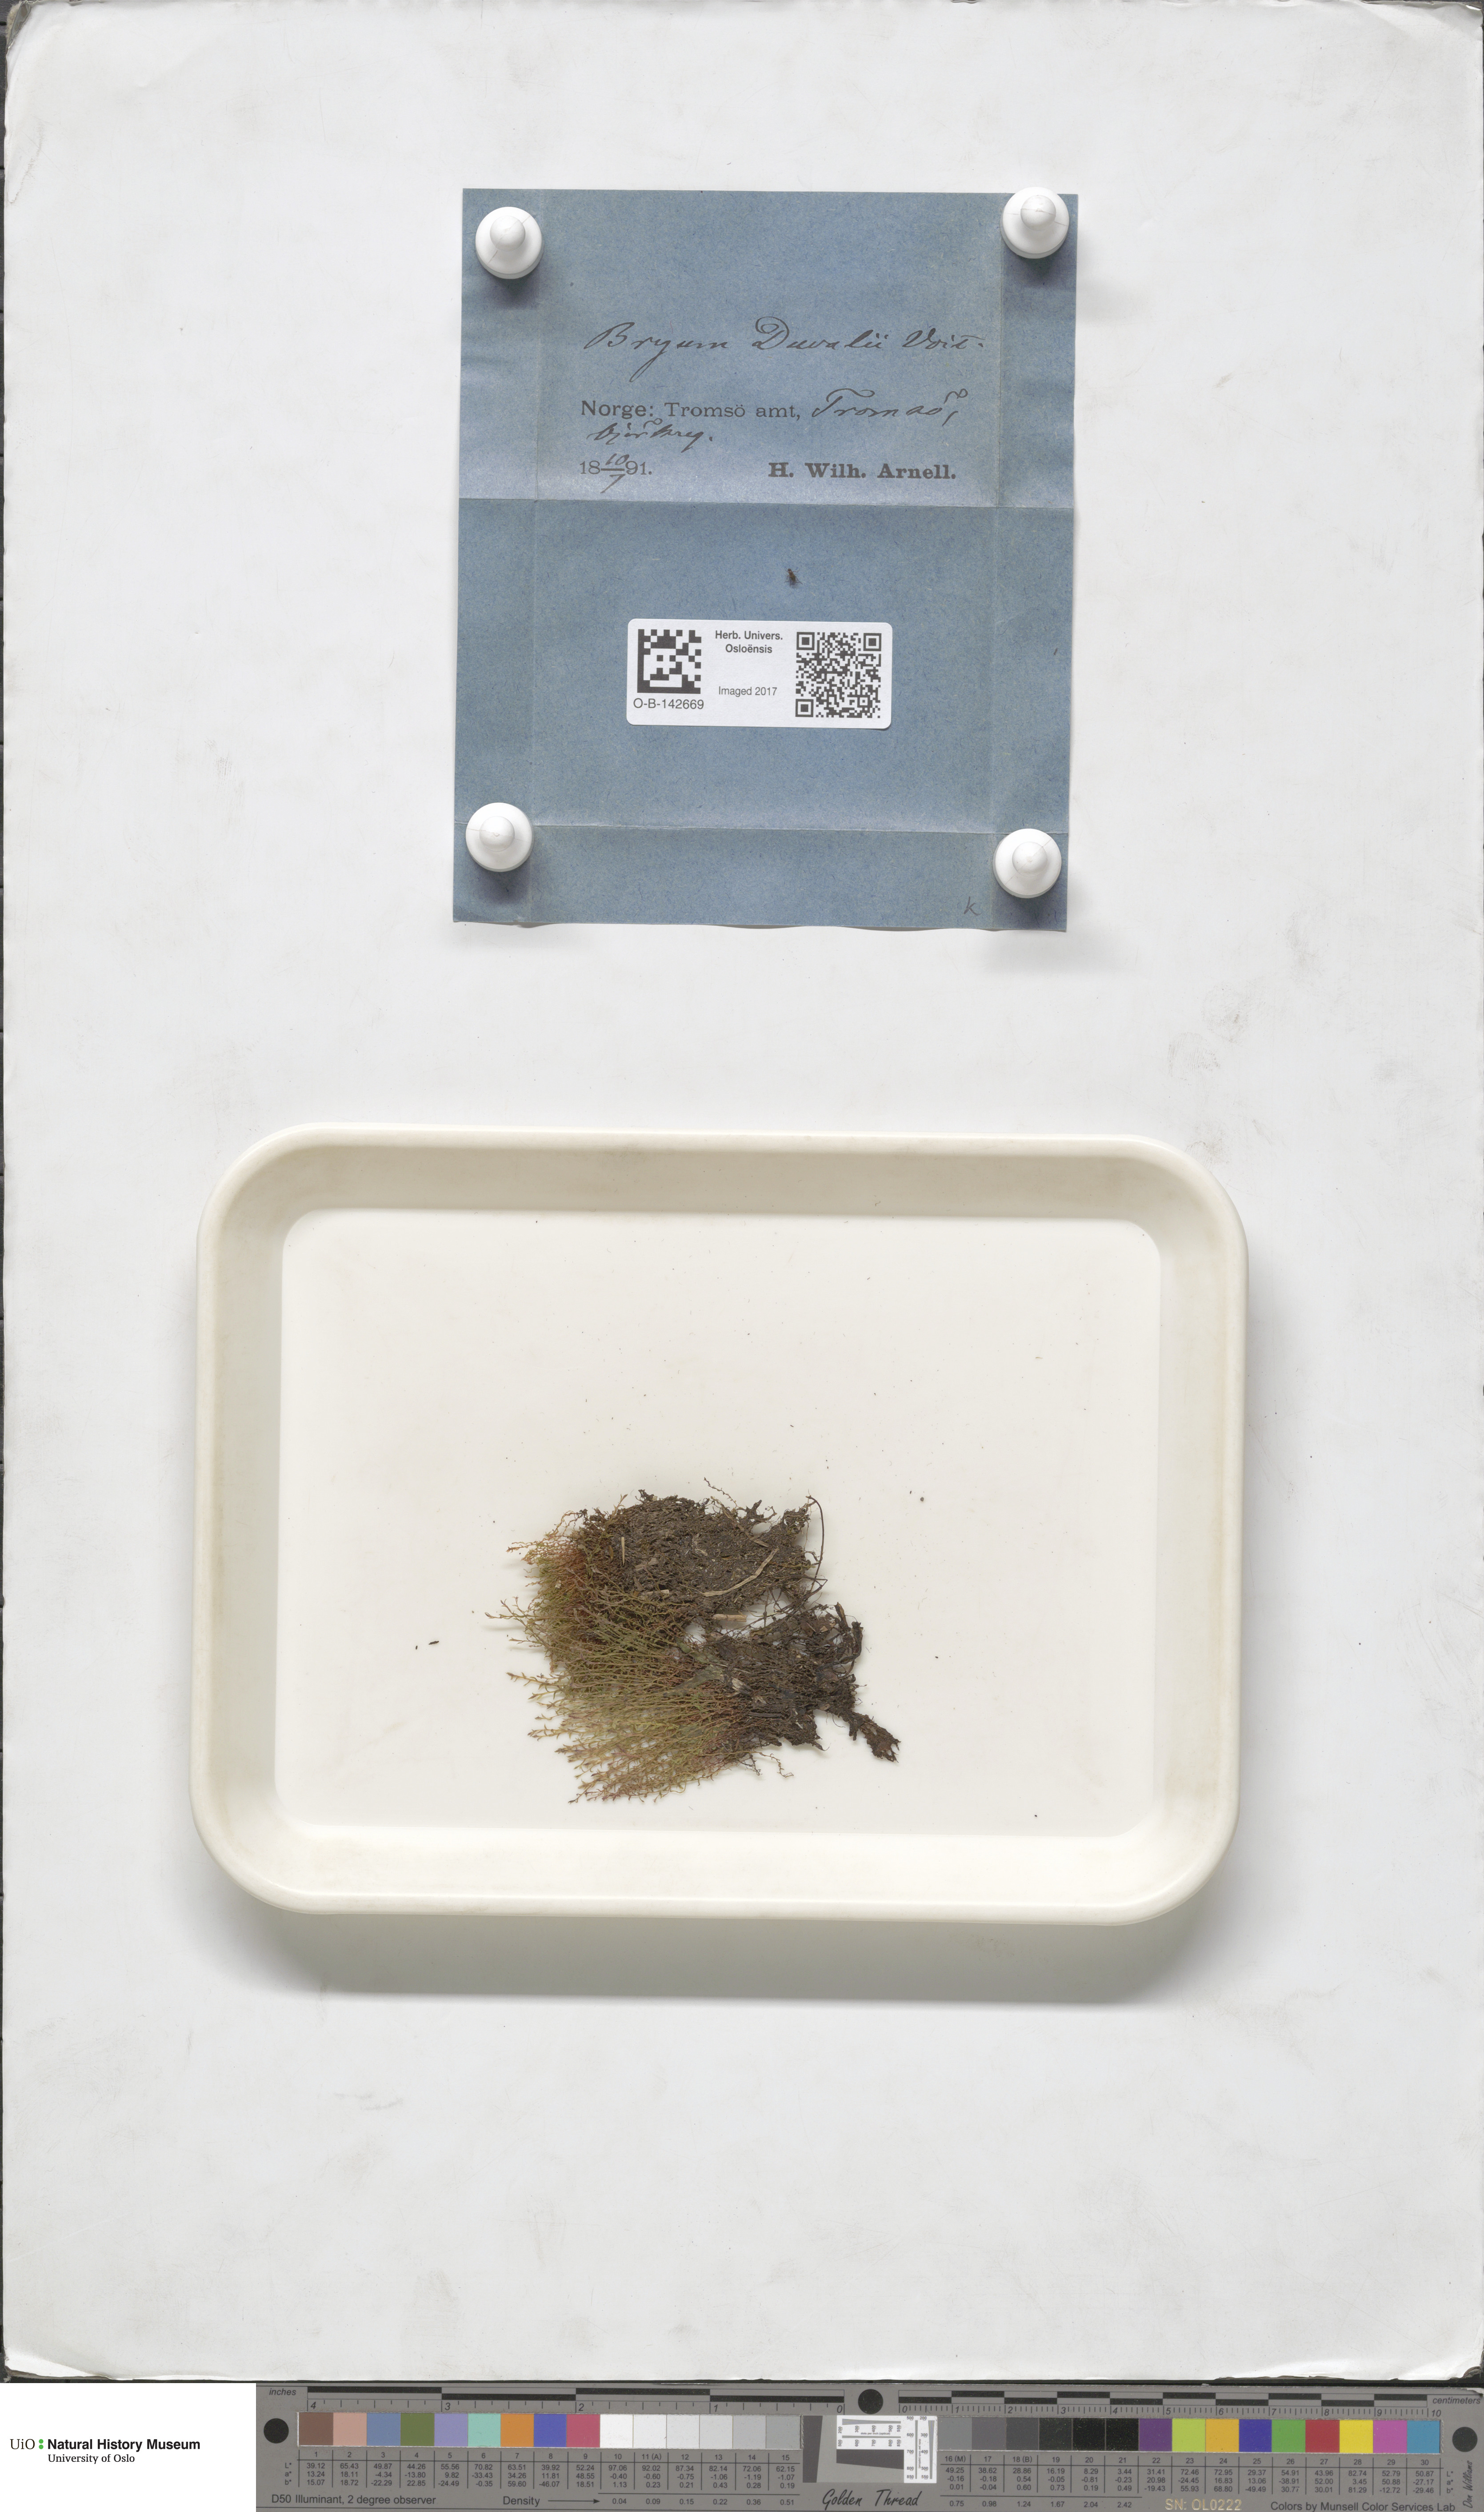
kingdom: Plantae
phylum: Bryophyta
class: Bryopsida
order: Bryales
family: Bryaceae
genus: Ptychostomum
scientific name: Ptychostomum weigelii
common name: Weigel's bryum moss
